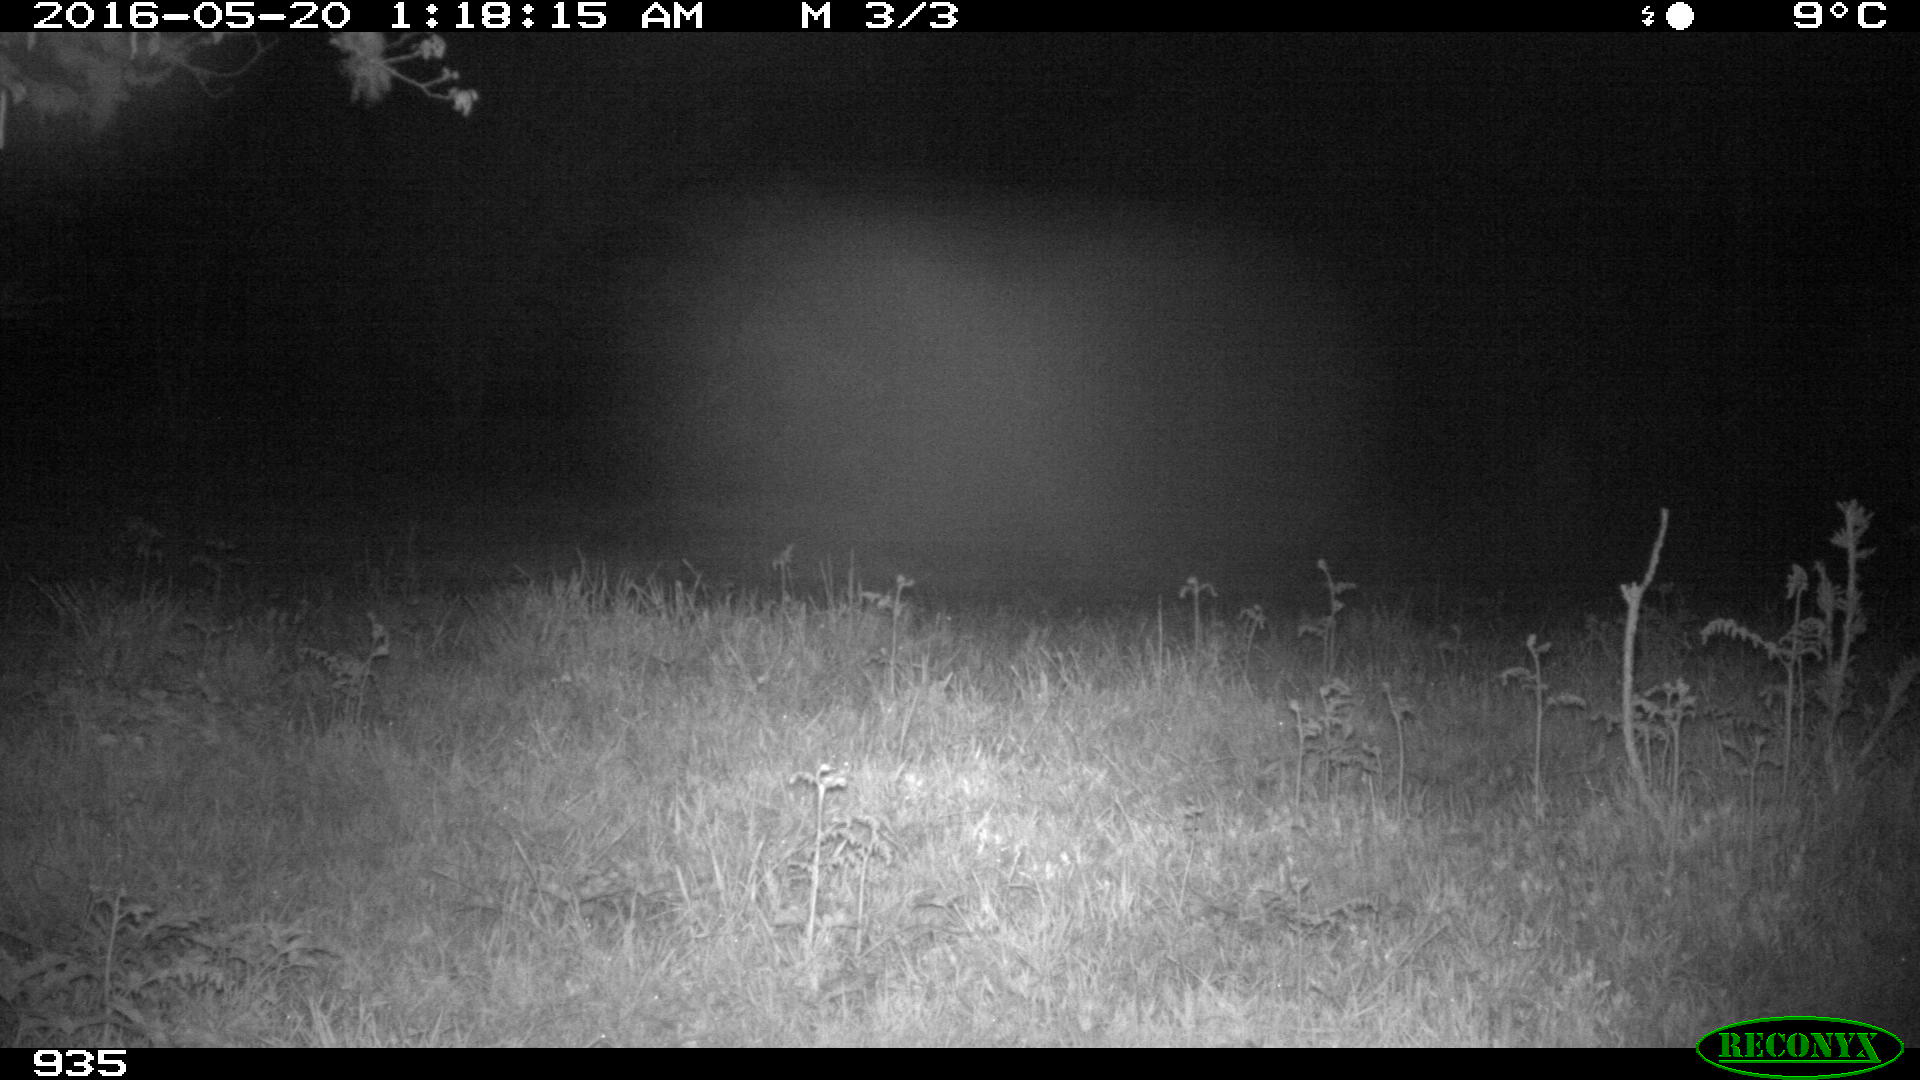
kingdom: Animalia
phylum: Chordata
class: Mammalia
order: Artiodactyla
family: Cervidae
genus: Capreolus
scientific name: Capreolus capreolus
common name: Western roe deer
